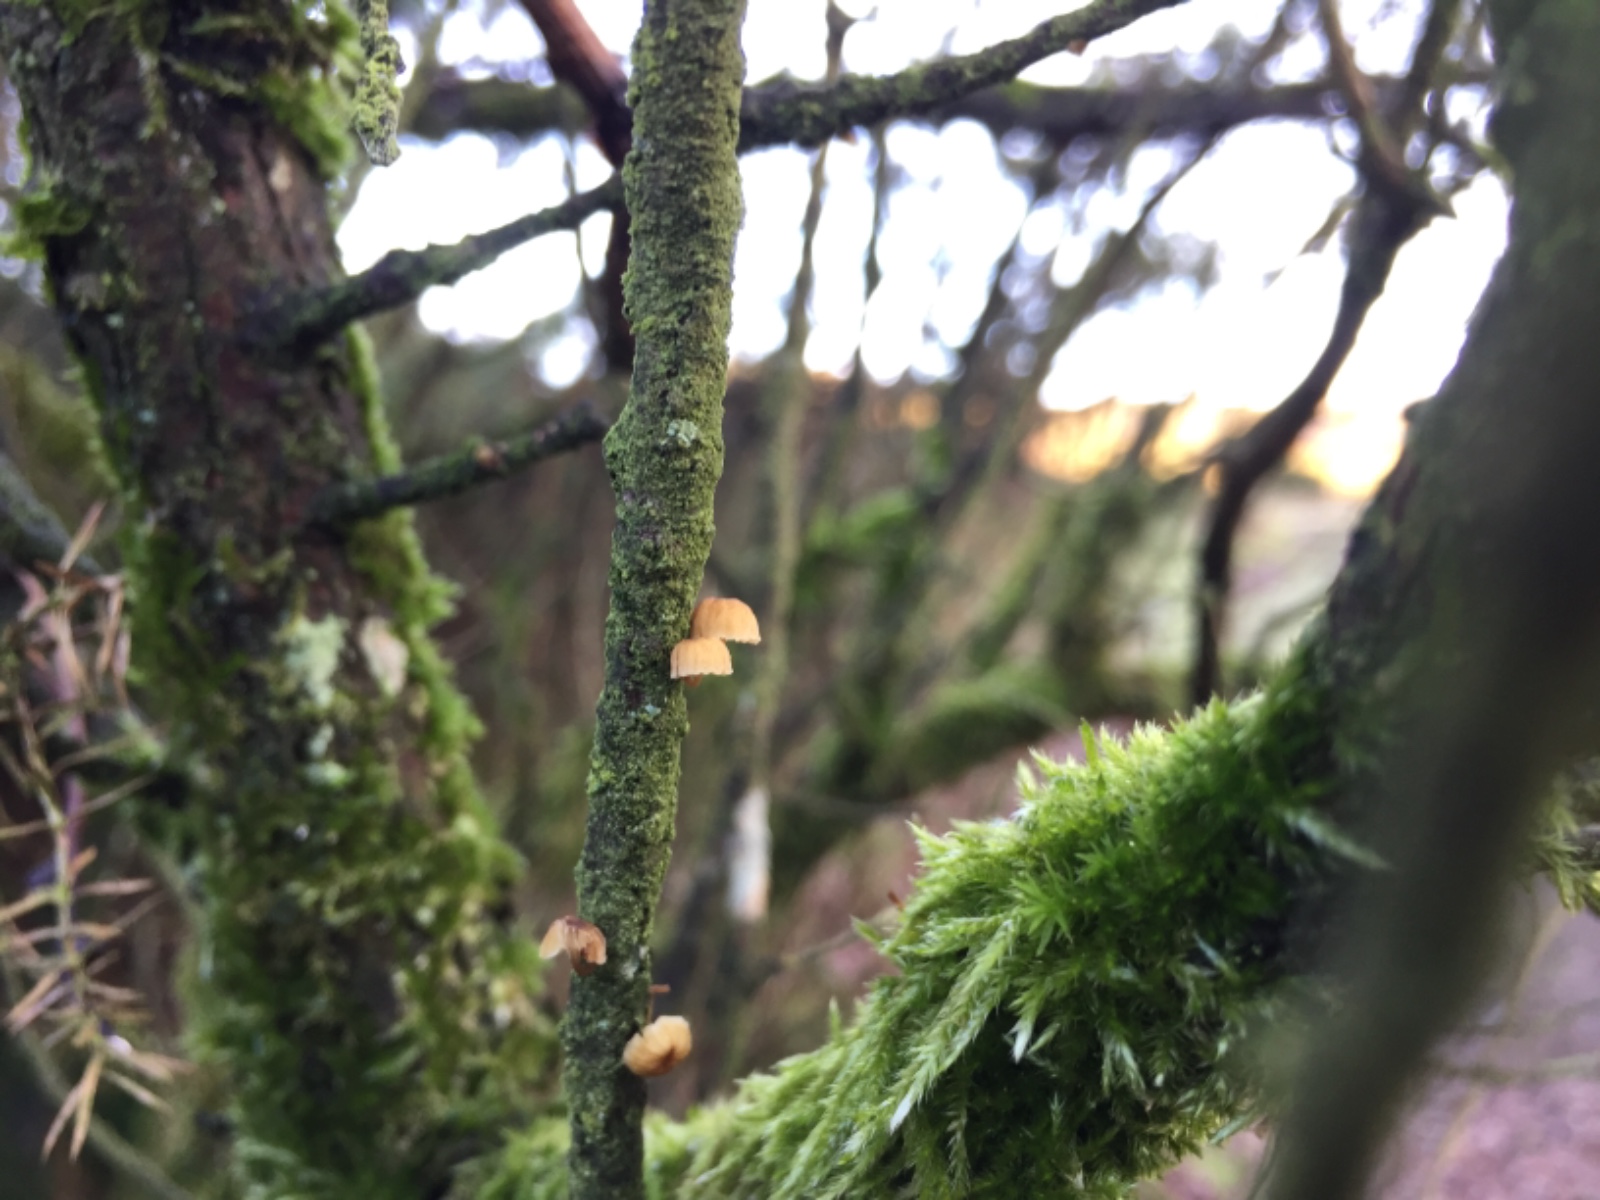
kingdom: Fungi
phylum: Basidiomycota
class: Agaricomycetes
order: Agaricales
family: Mycenaceae
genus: Mycena
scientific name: Mycena juniperina
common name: ene-Huesvamp
